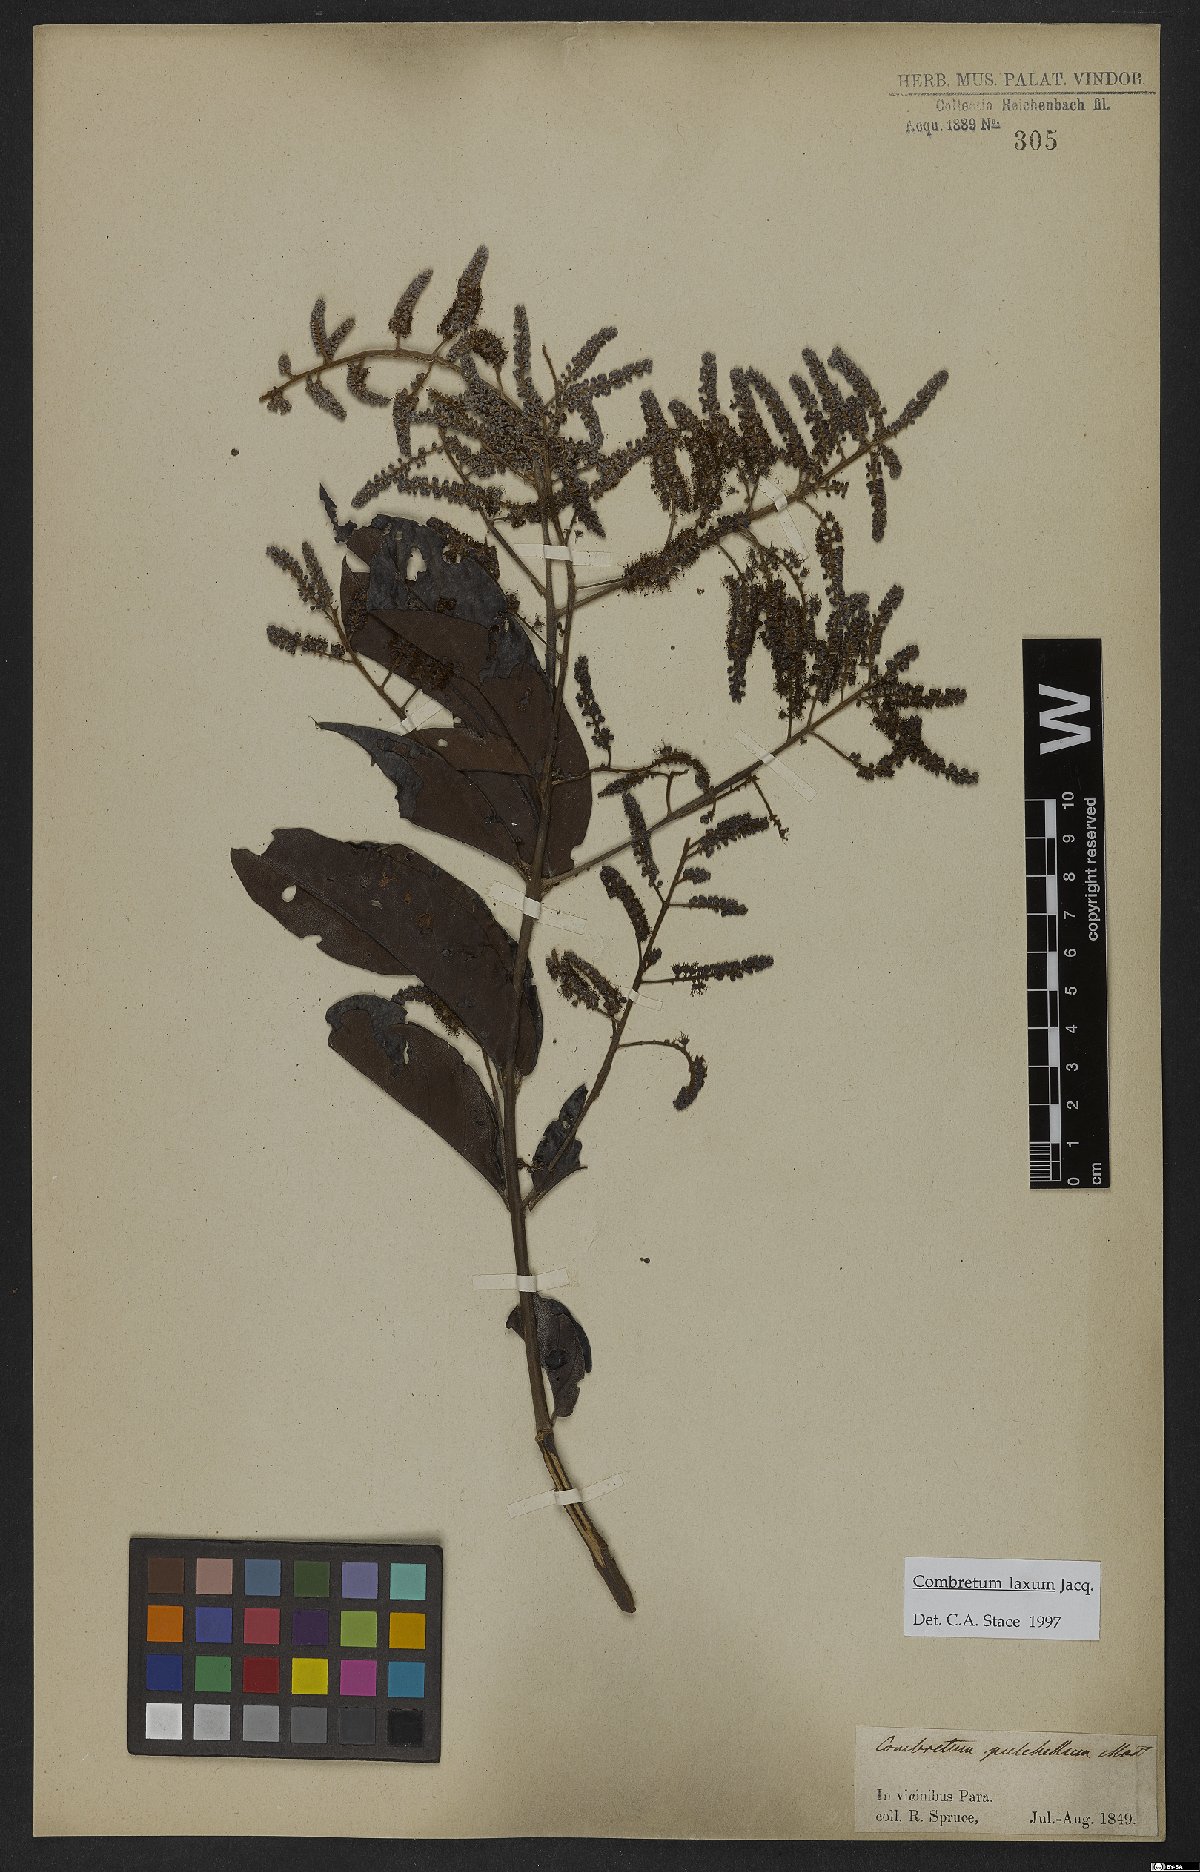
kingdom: Plantae
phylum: Tracheophyta
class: Magnoliopsida
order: Myrtales
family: Combretaceae
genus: Combretum
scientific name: Combretum laxum
